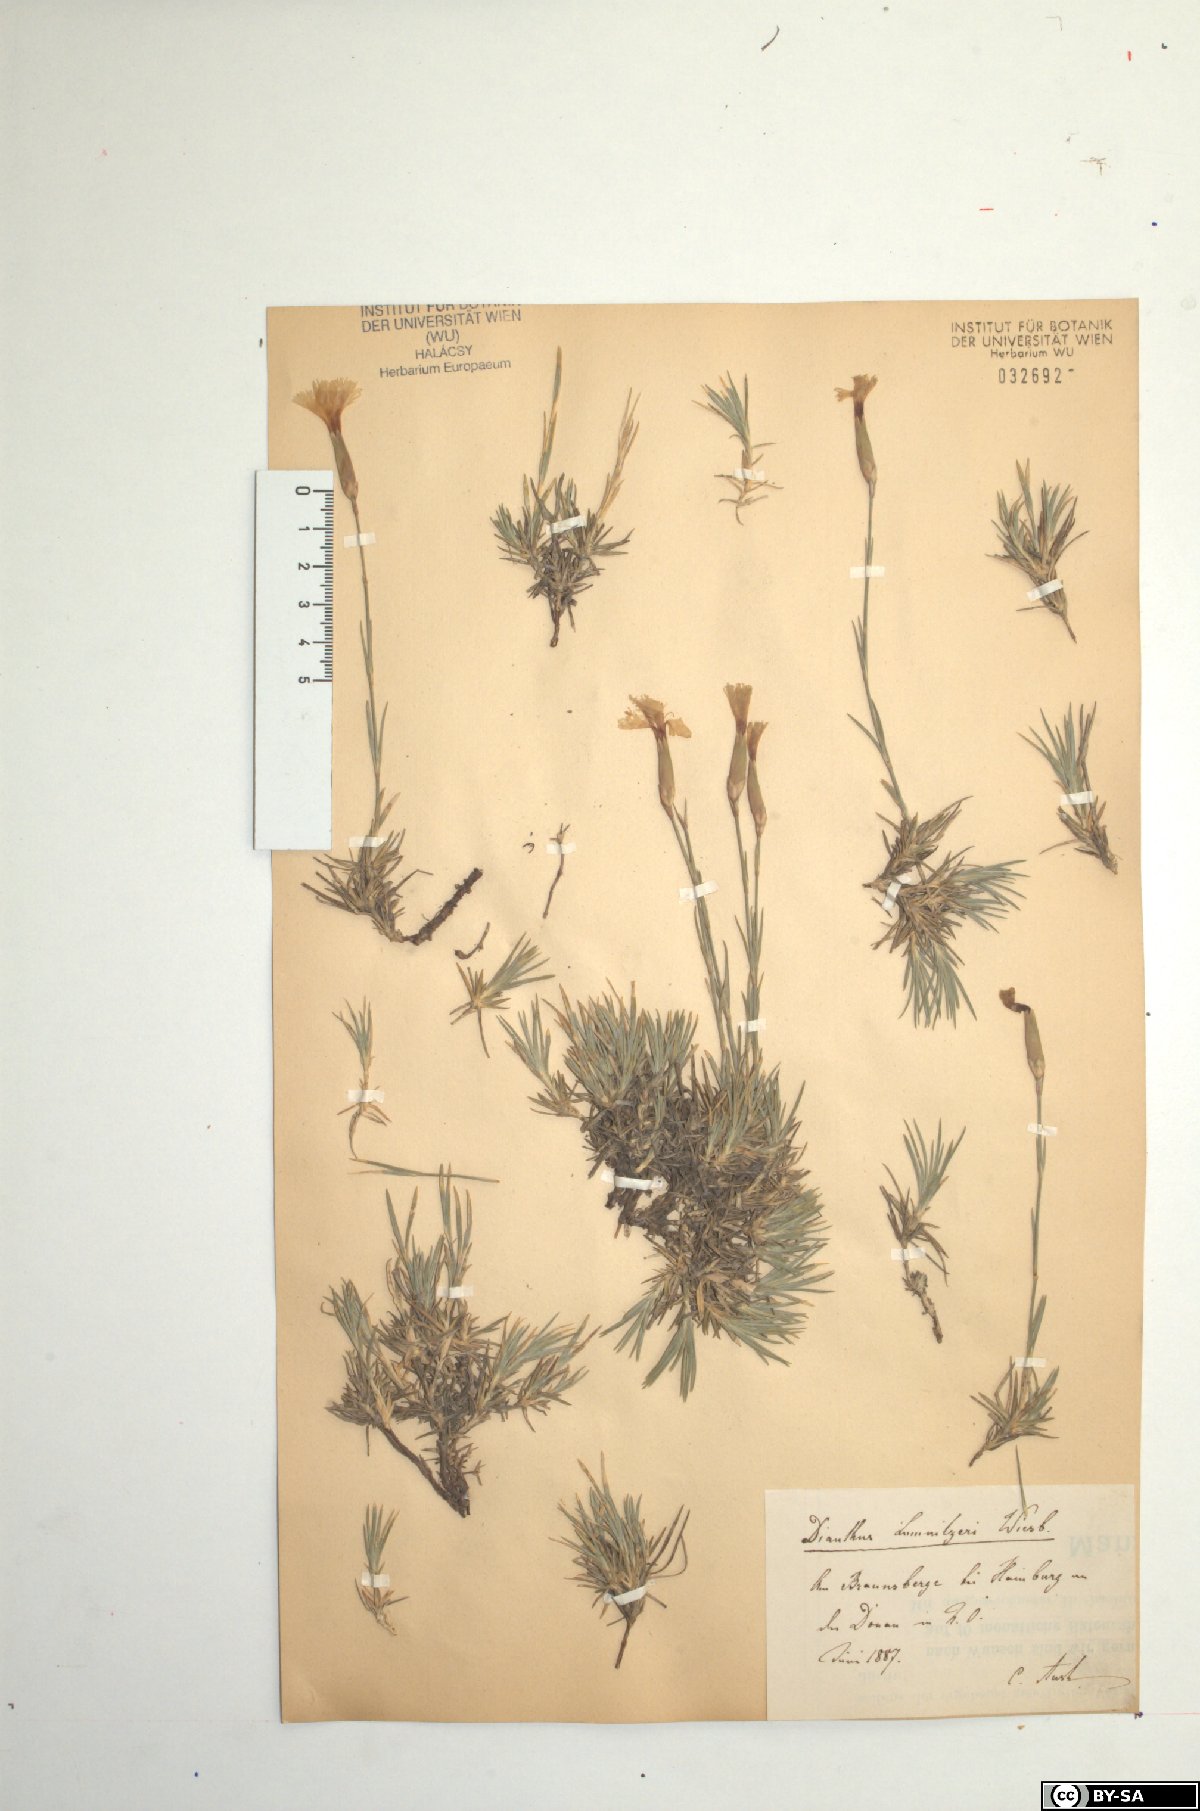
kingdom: Plantae
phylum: Tracheophyta
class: Magnoliopsida
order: Caryophyllales
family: Caryophyllaceae
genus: Dianthus
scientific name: Dianthus praecox
